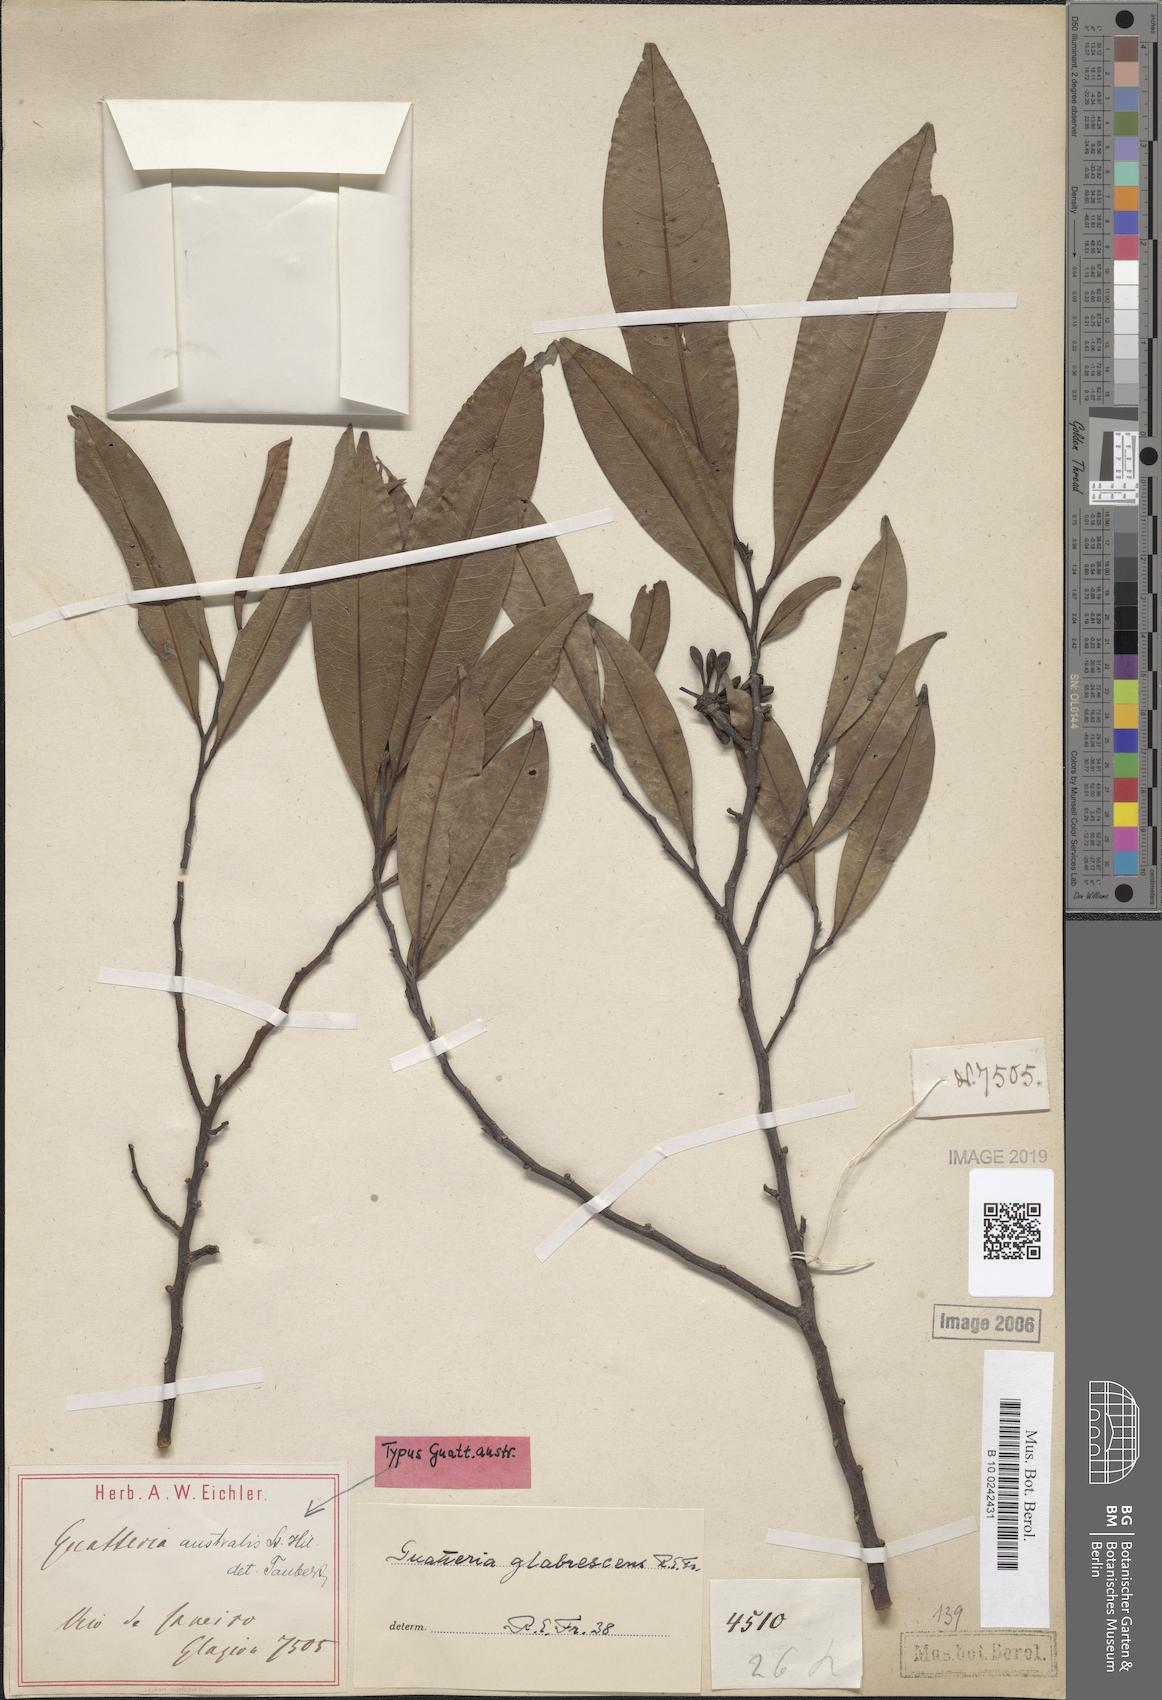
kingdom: Plantae
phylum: Tracheophyta
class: Magnoliopsida
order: Magnoliales
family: Annonaceae
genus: Guatteria
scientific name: Guatteria australis
